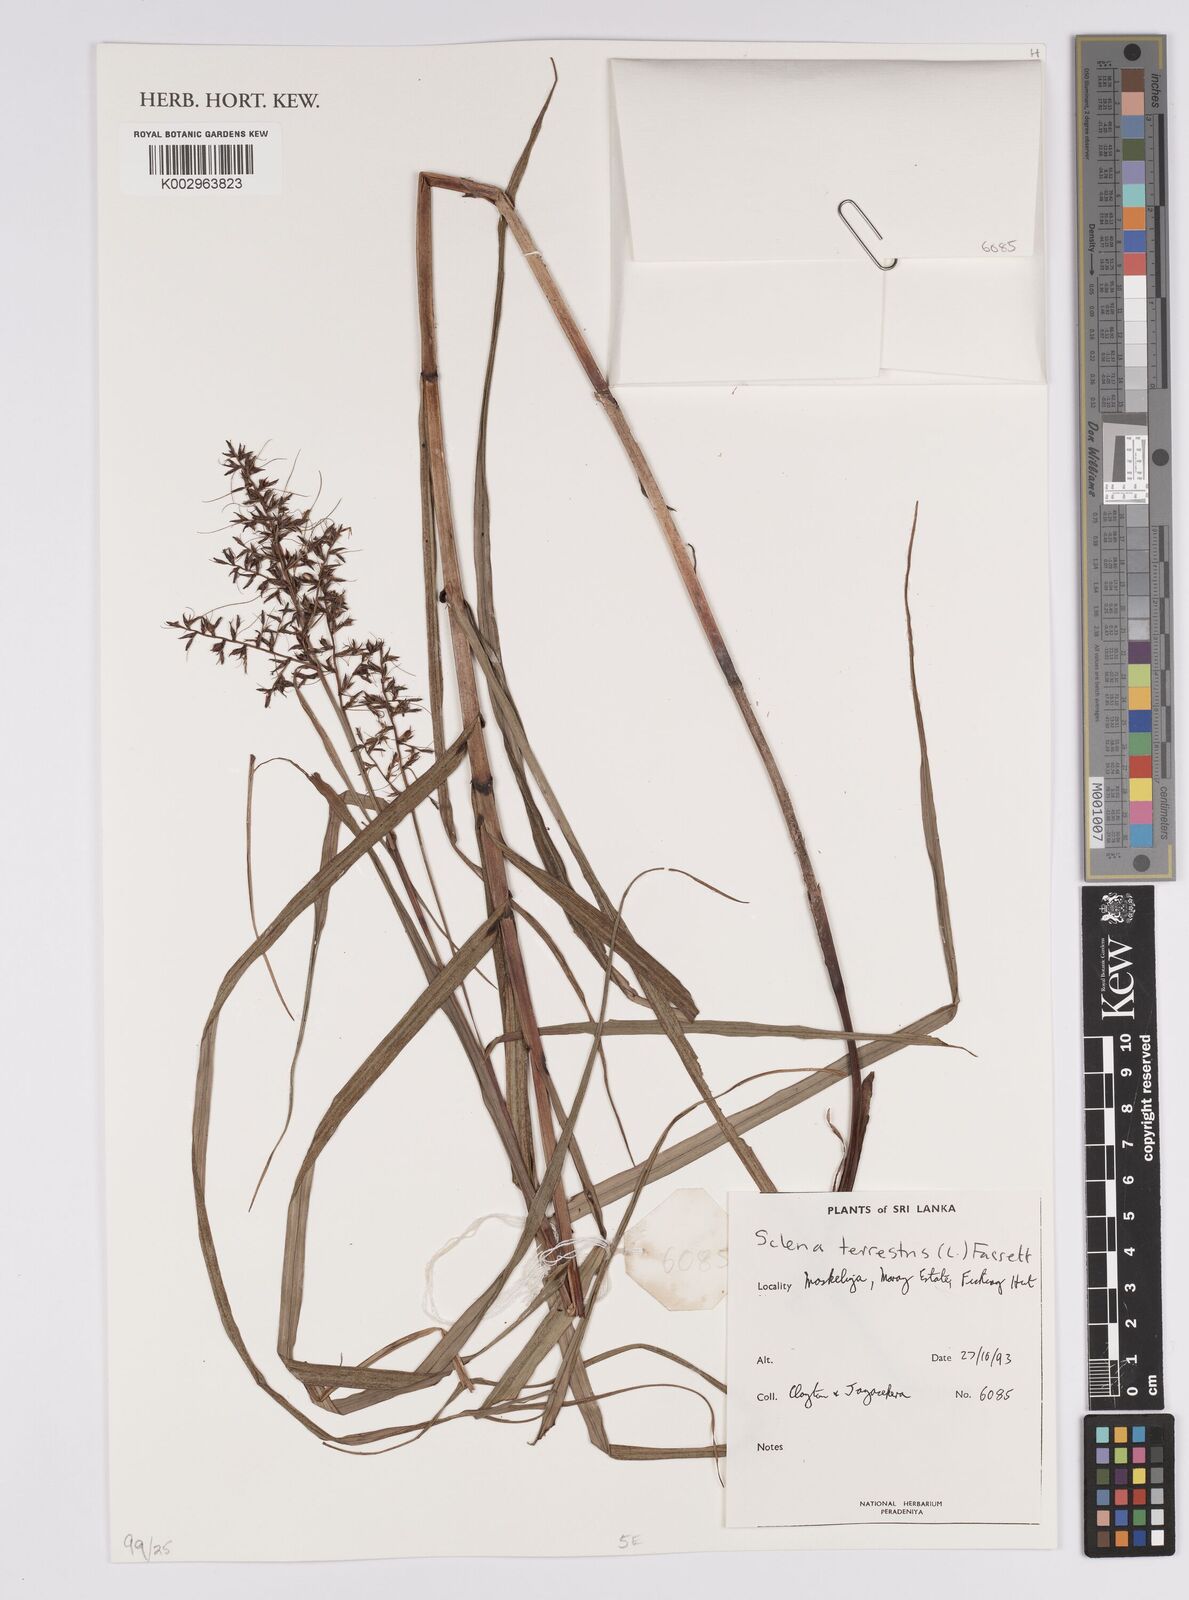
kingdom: Plantae
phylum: Tracheophyta
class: Liliopsida
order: Poales
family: Cyperaceae
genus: Scleria
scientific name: Scleria terrestris
